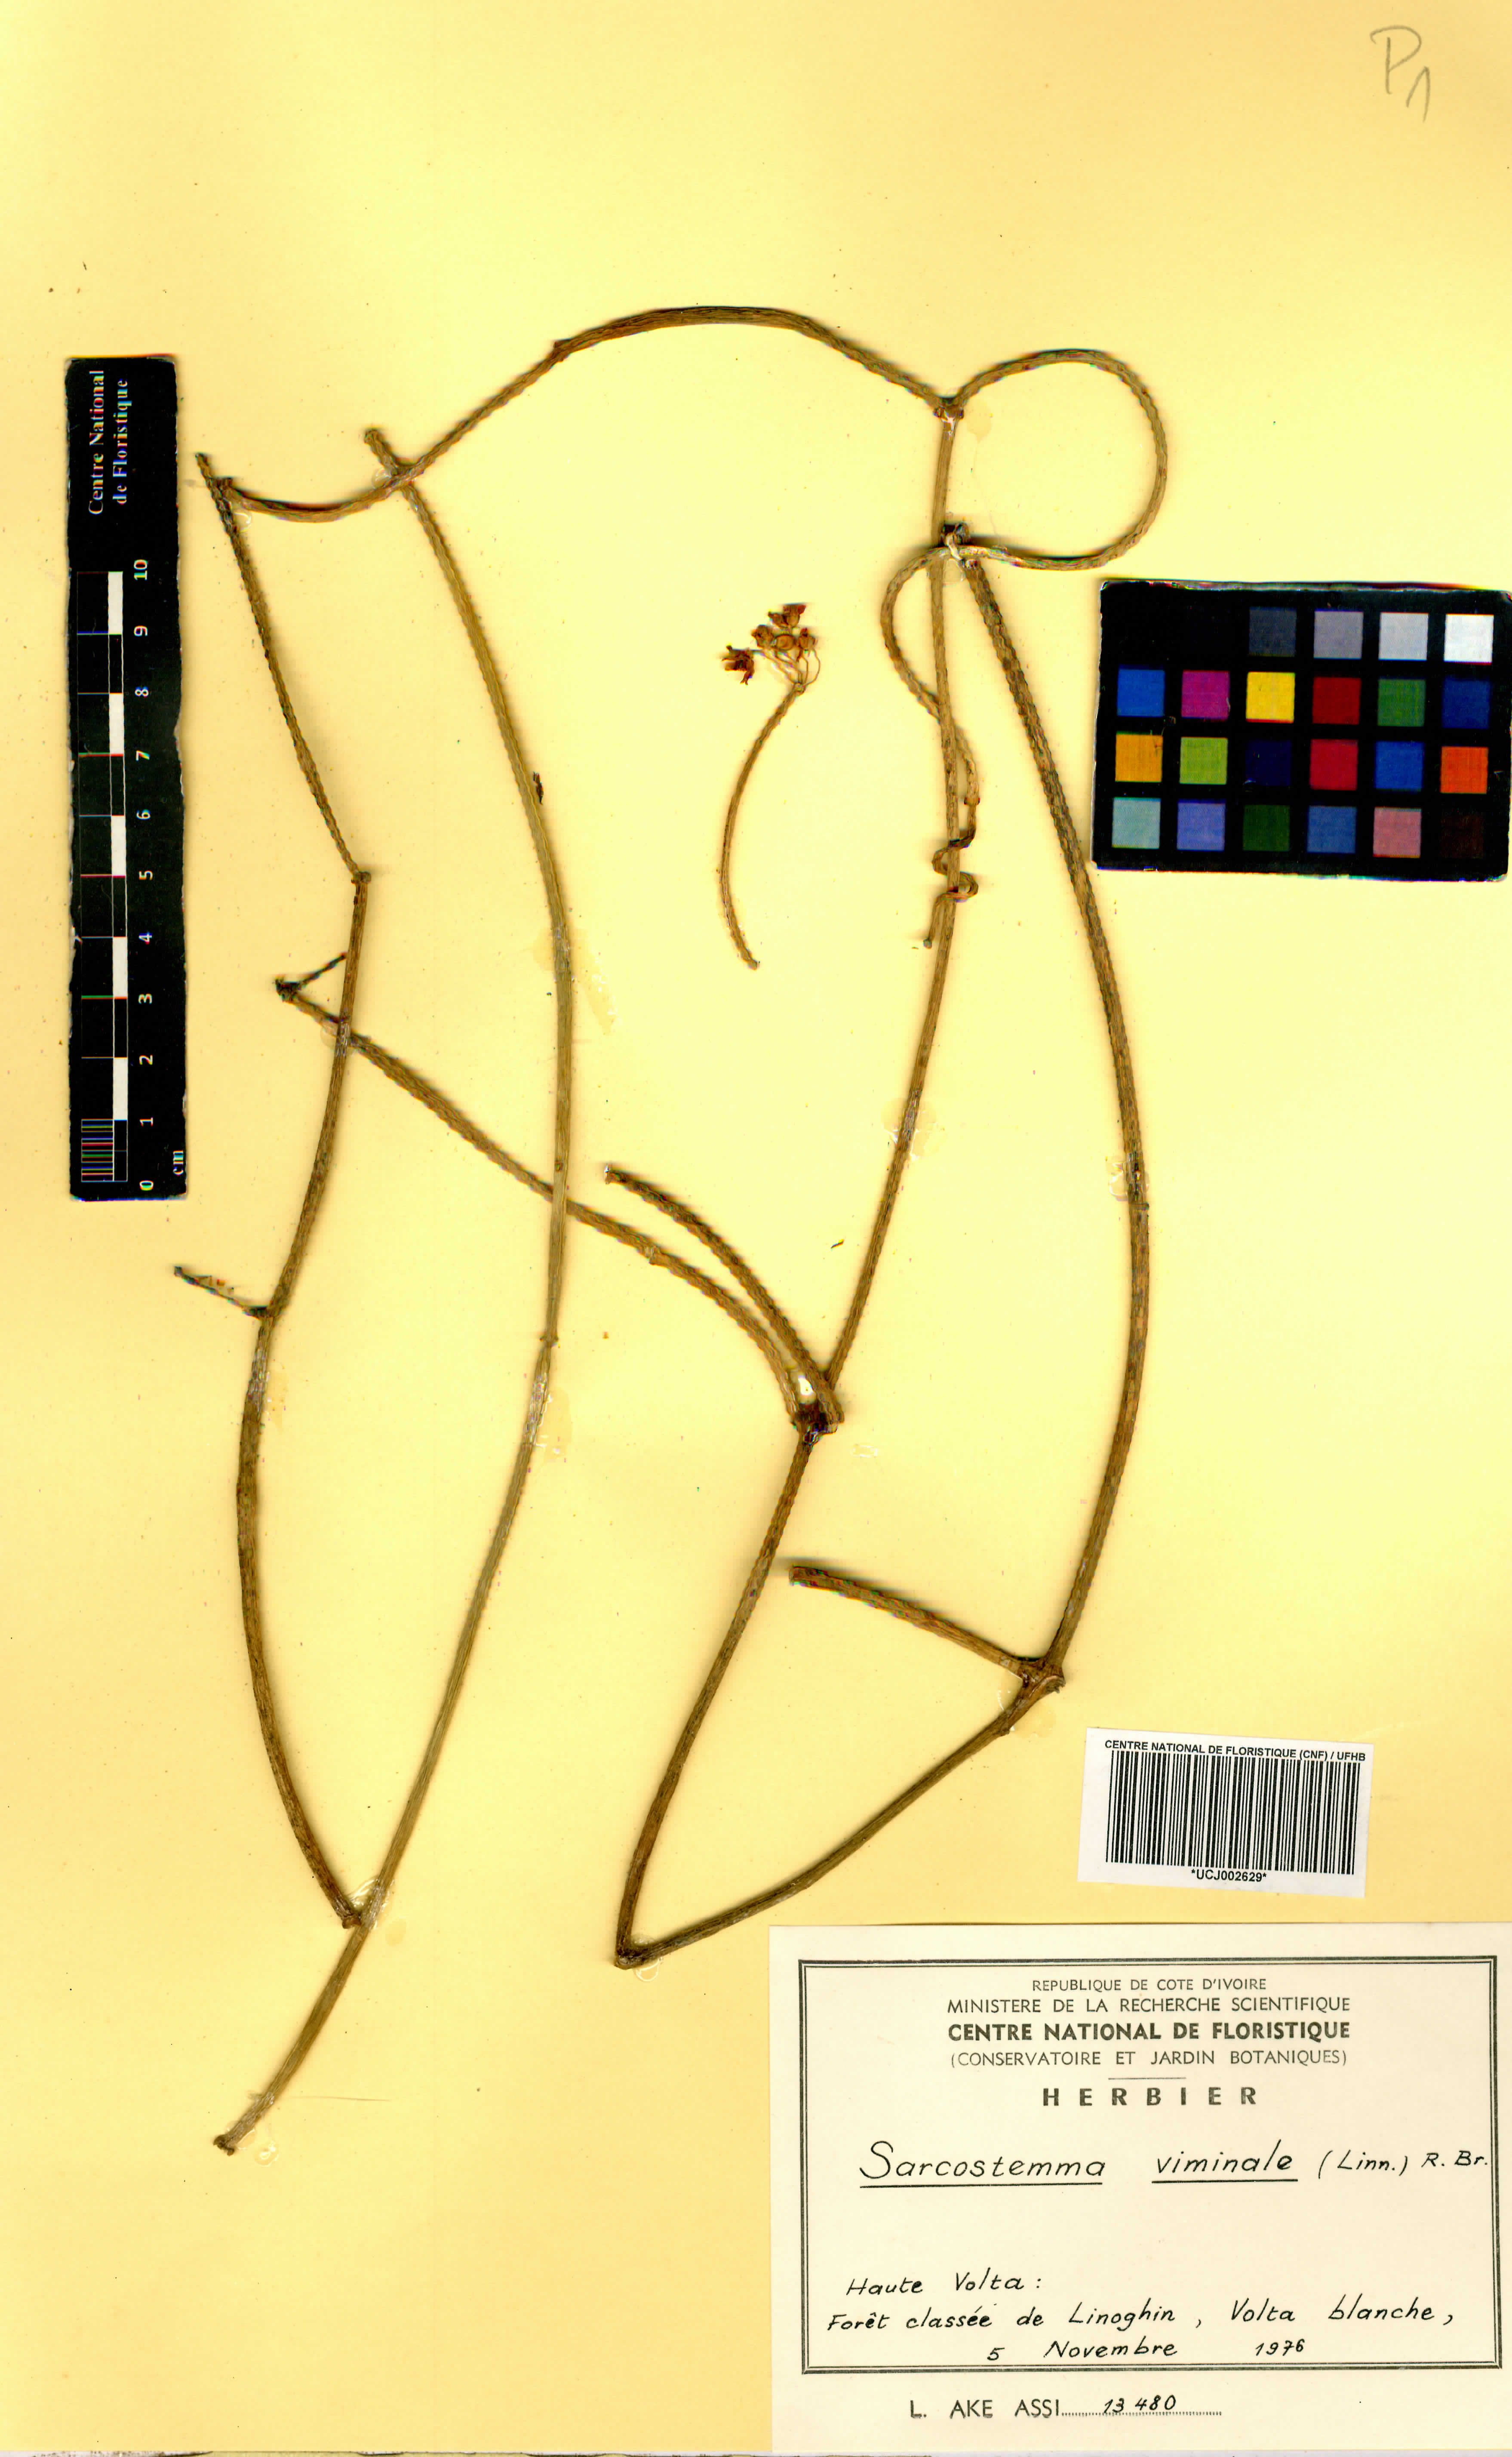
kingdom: Plantae
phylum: Tracheophyta
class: Magnoliopsida
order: Gentianales
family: Apocynaceae
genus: Cynanchum
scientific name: Cynanchum viminale
